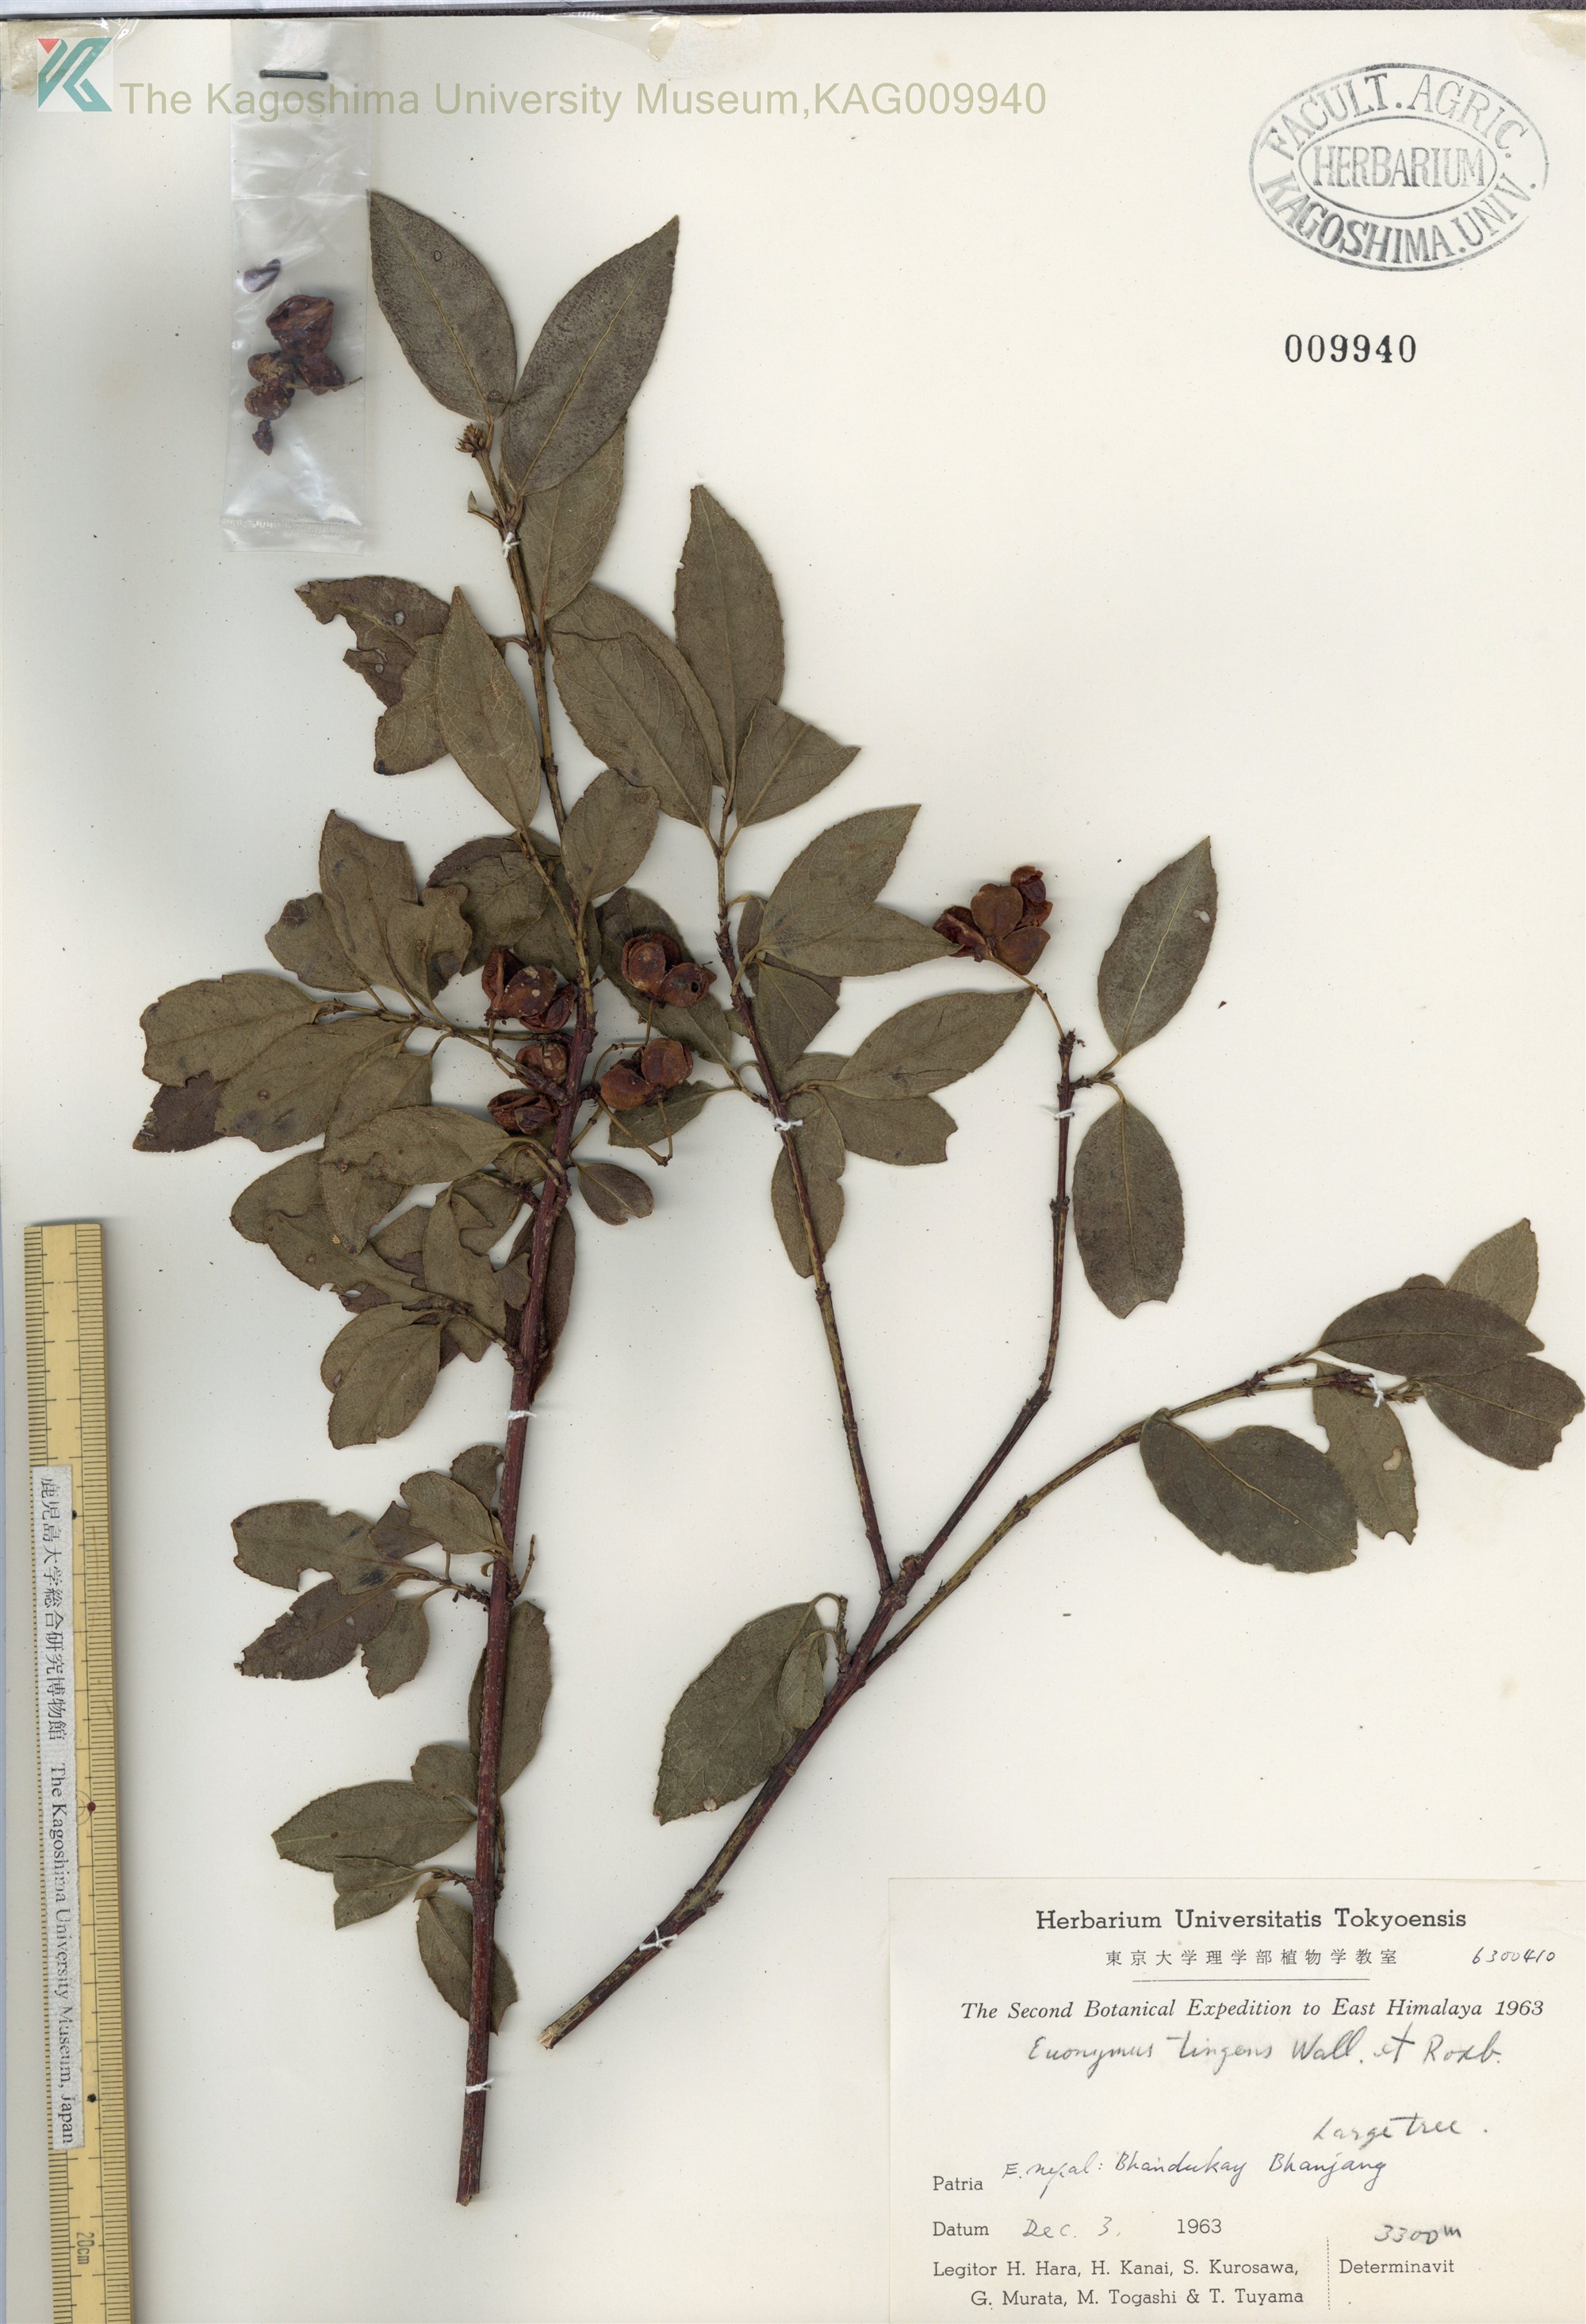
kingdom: Plantae
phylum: Tracheophyta
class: Magnoliopsida
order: Celastrales
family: Celastraceae
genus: Euonymus
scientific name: Euonymus tingens
